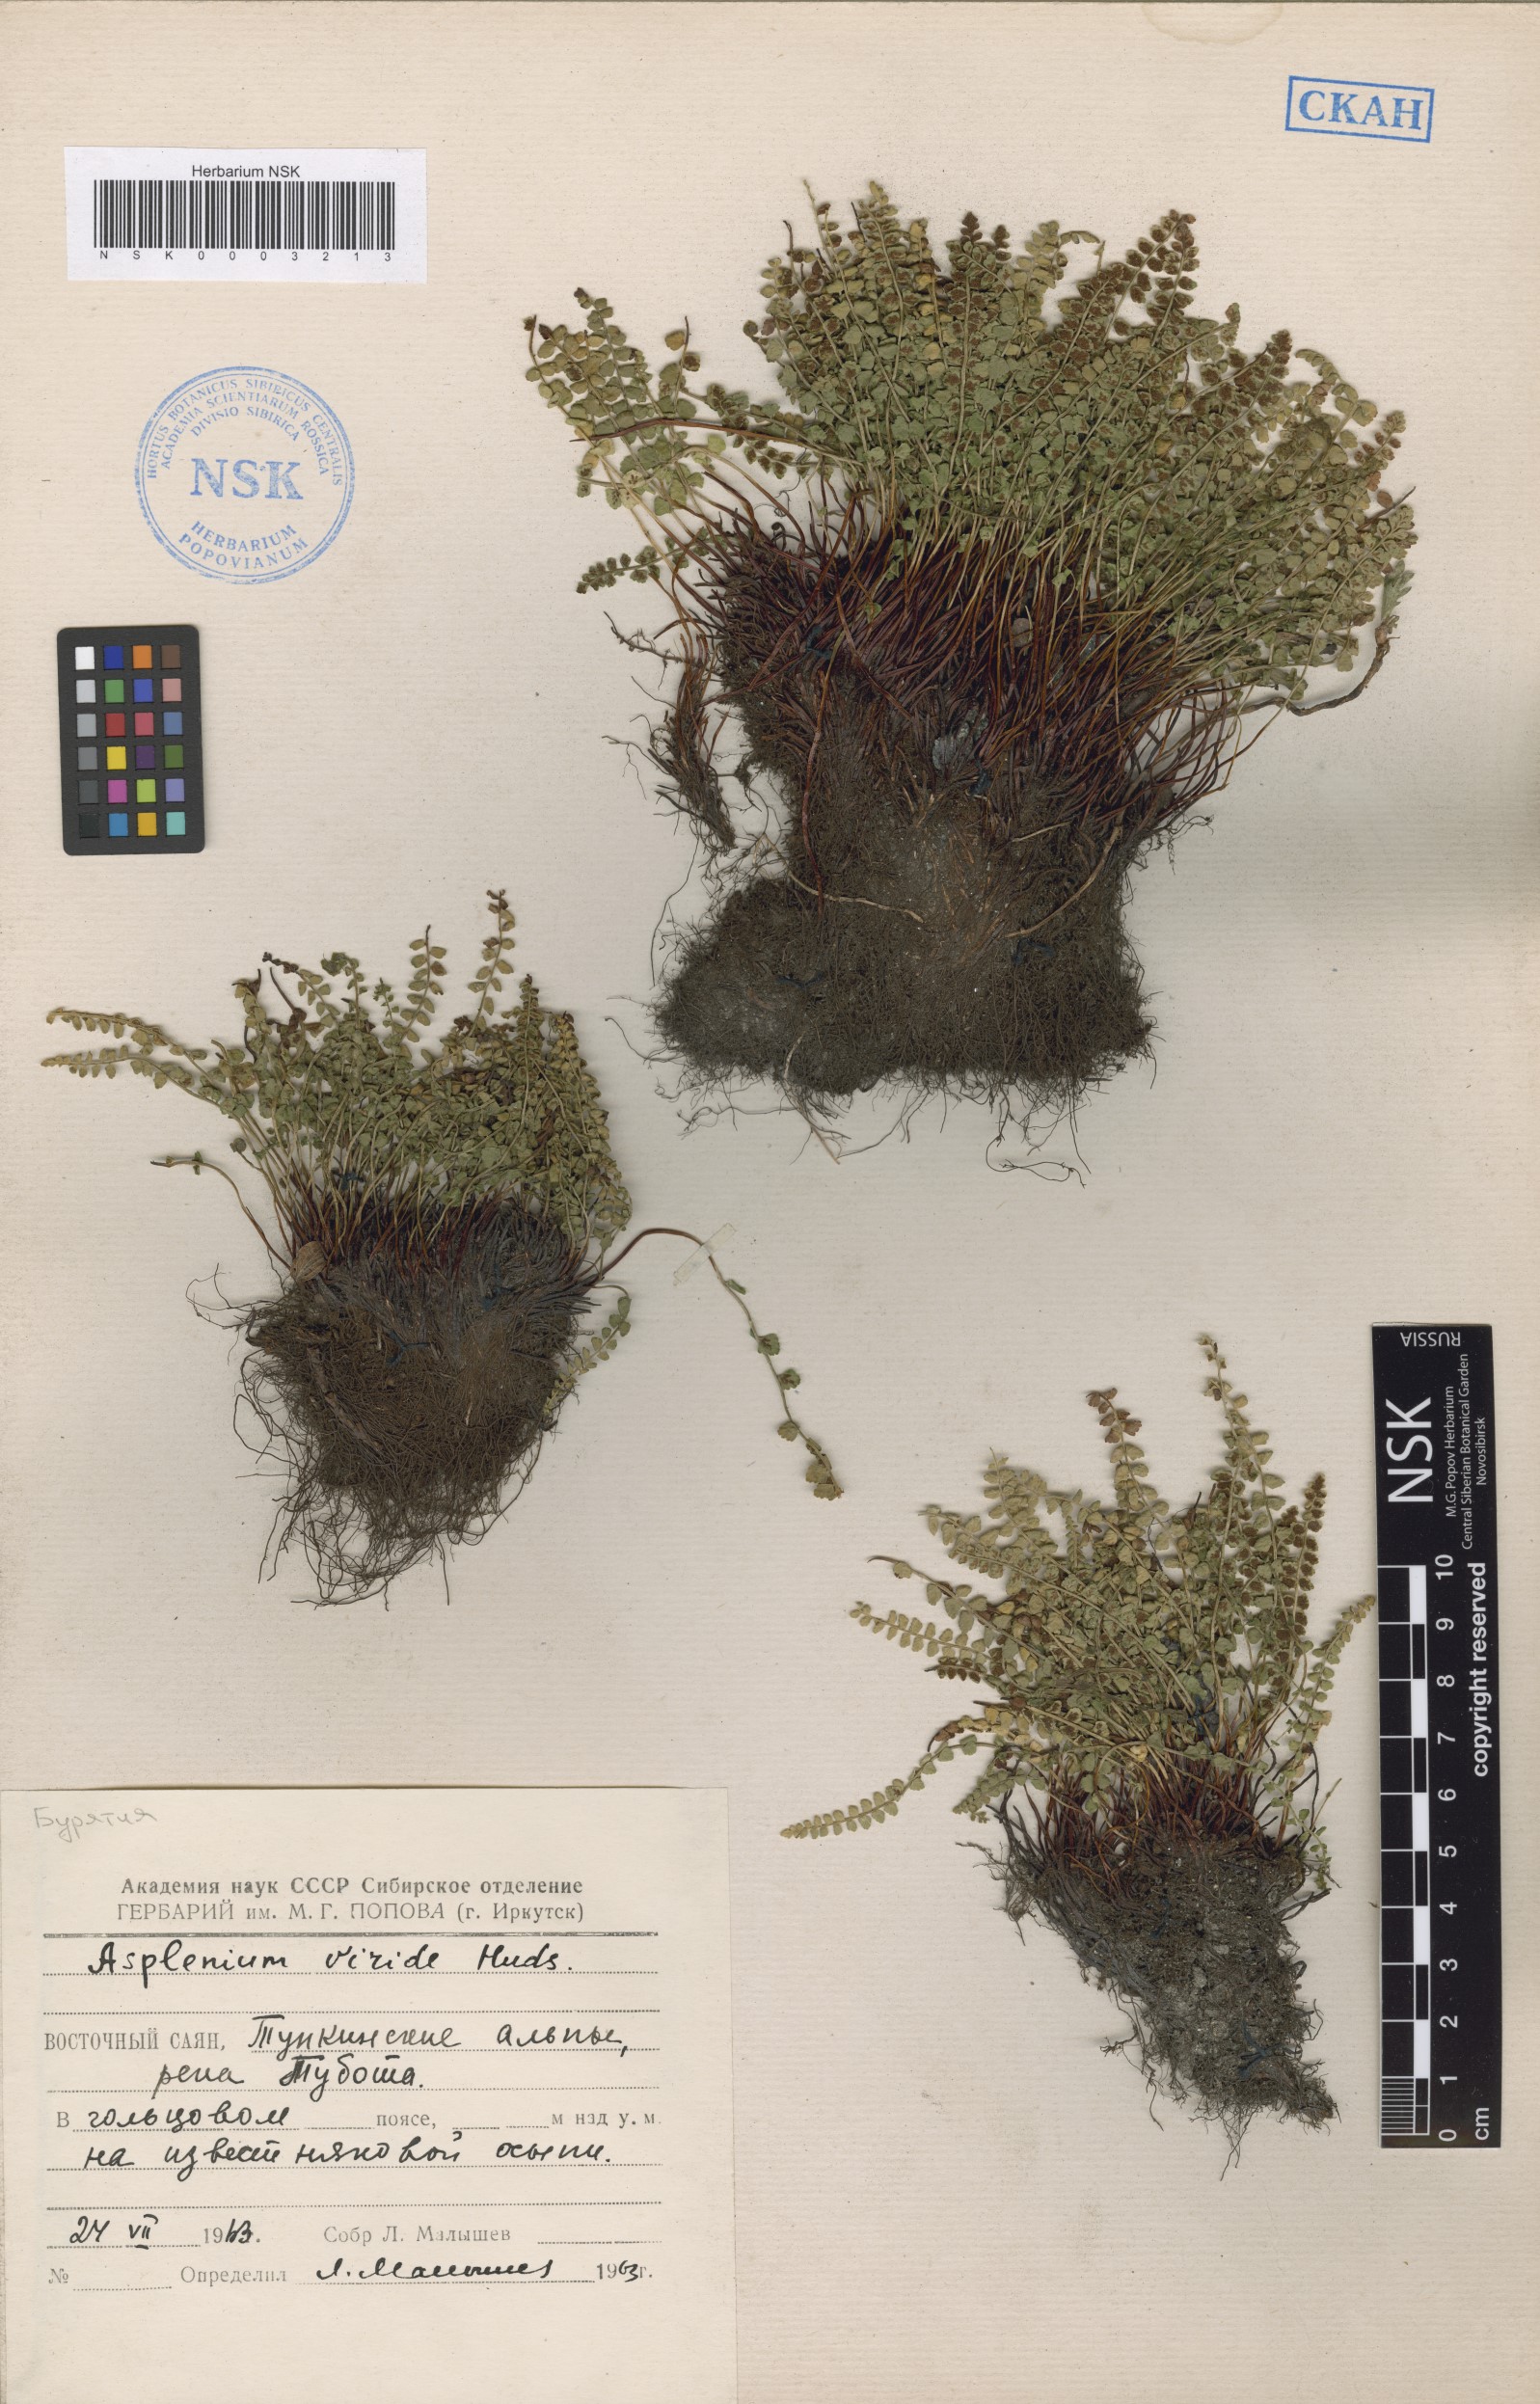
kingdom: Plantae
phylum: Tracheophyta
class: Polypodiopsida
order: Polypodiales
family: Aspleniaceae
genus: Asplenium
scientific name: Asplenium viride
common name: Green spleenwort
